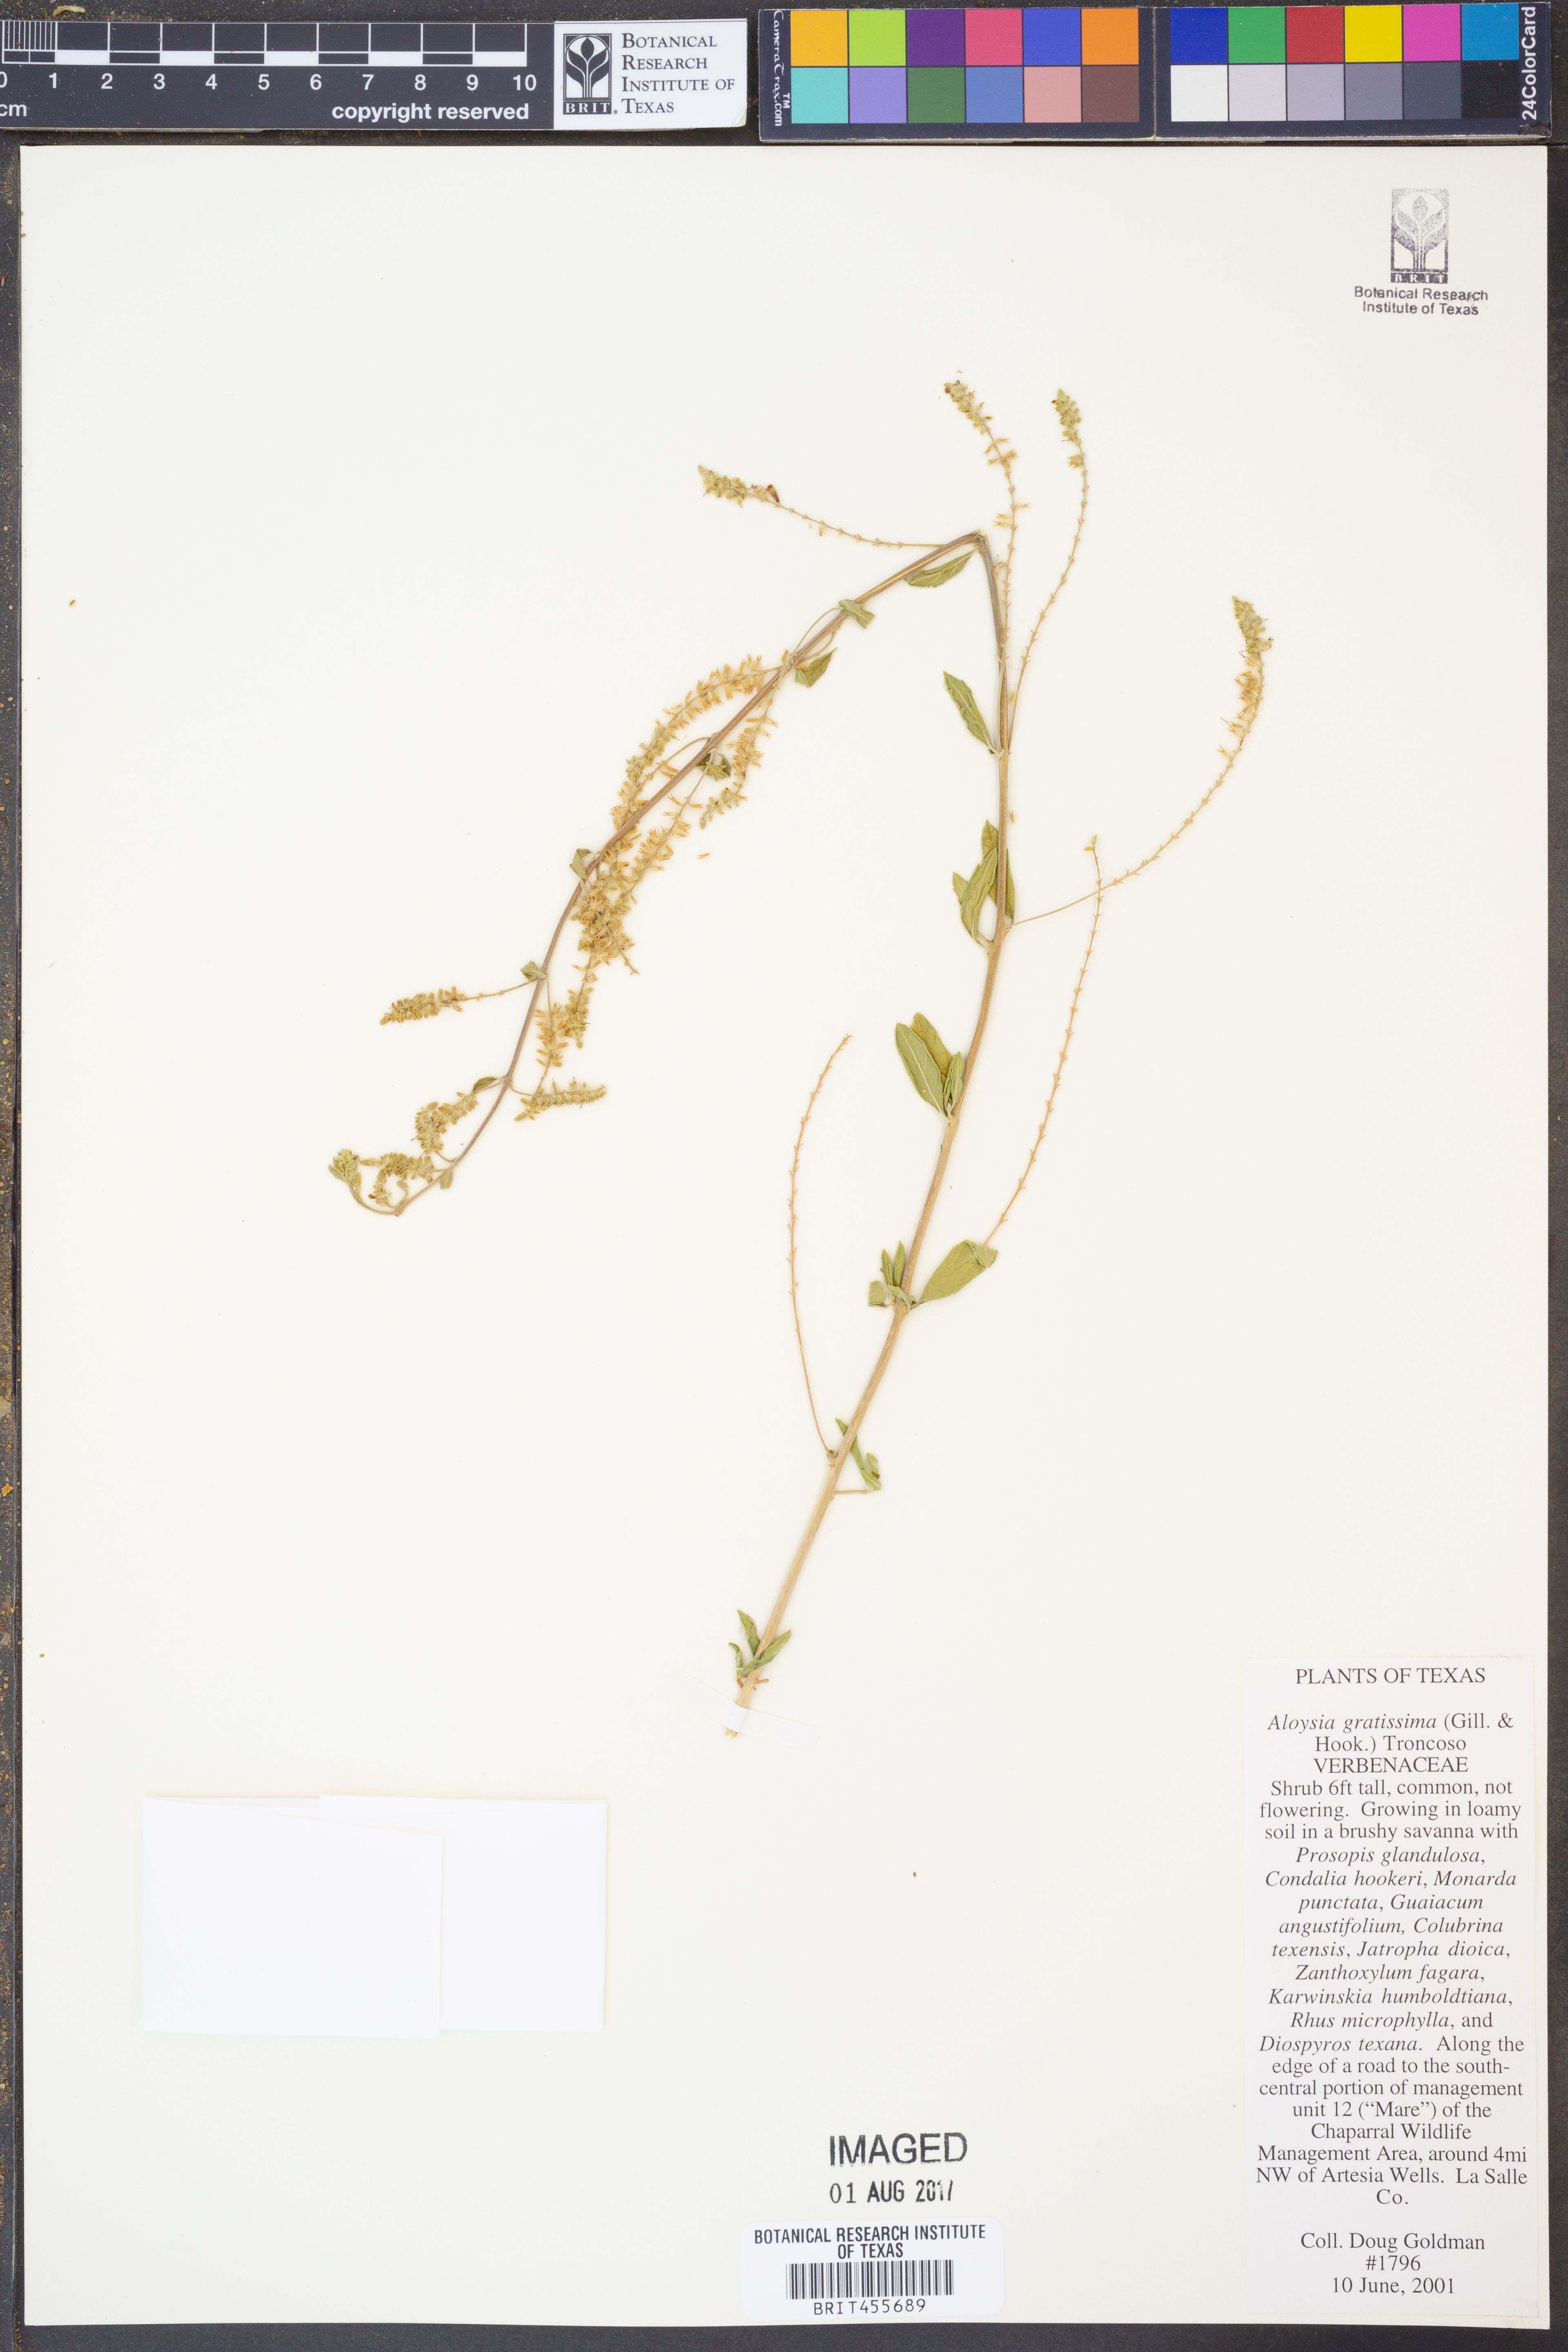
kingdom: Plantae
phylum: Tracheophyta
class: Magnoliopsida
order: Lamiales
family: Verbenaceae
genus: Aloysia
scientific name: Aloysia gratissima
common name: Common bee-brush
